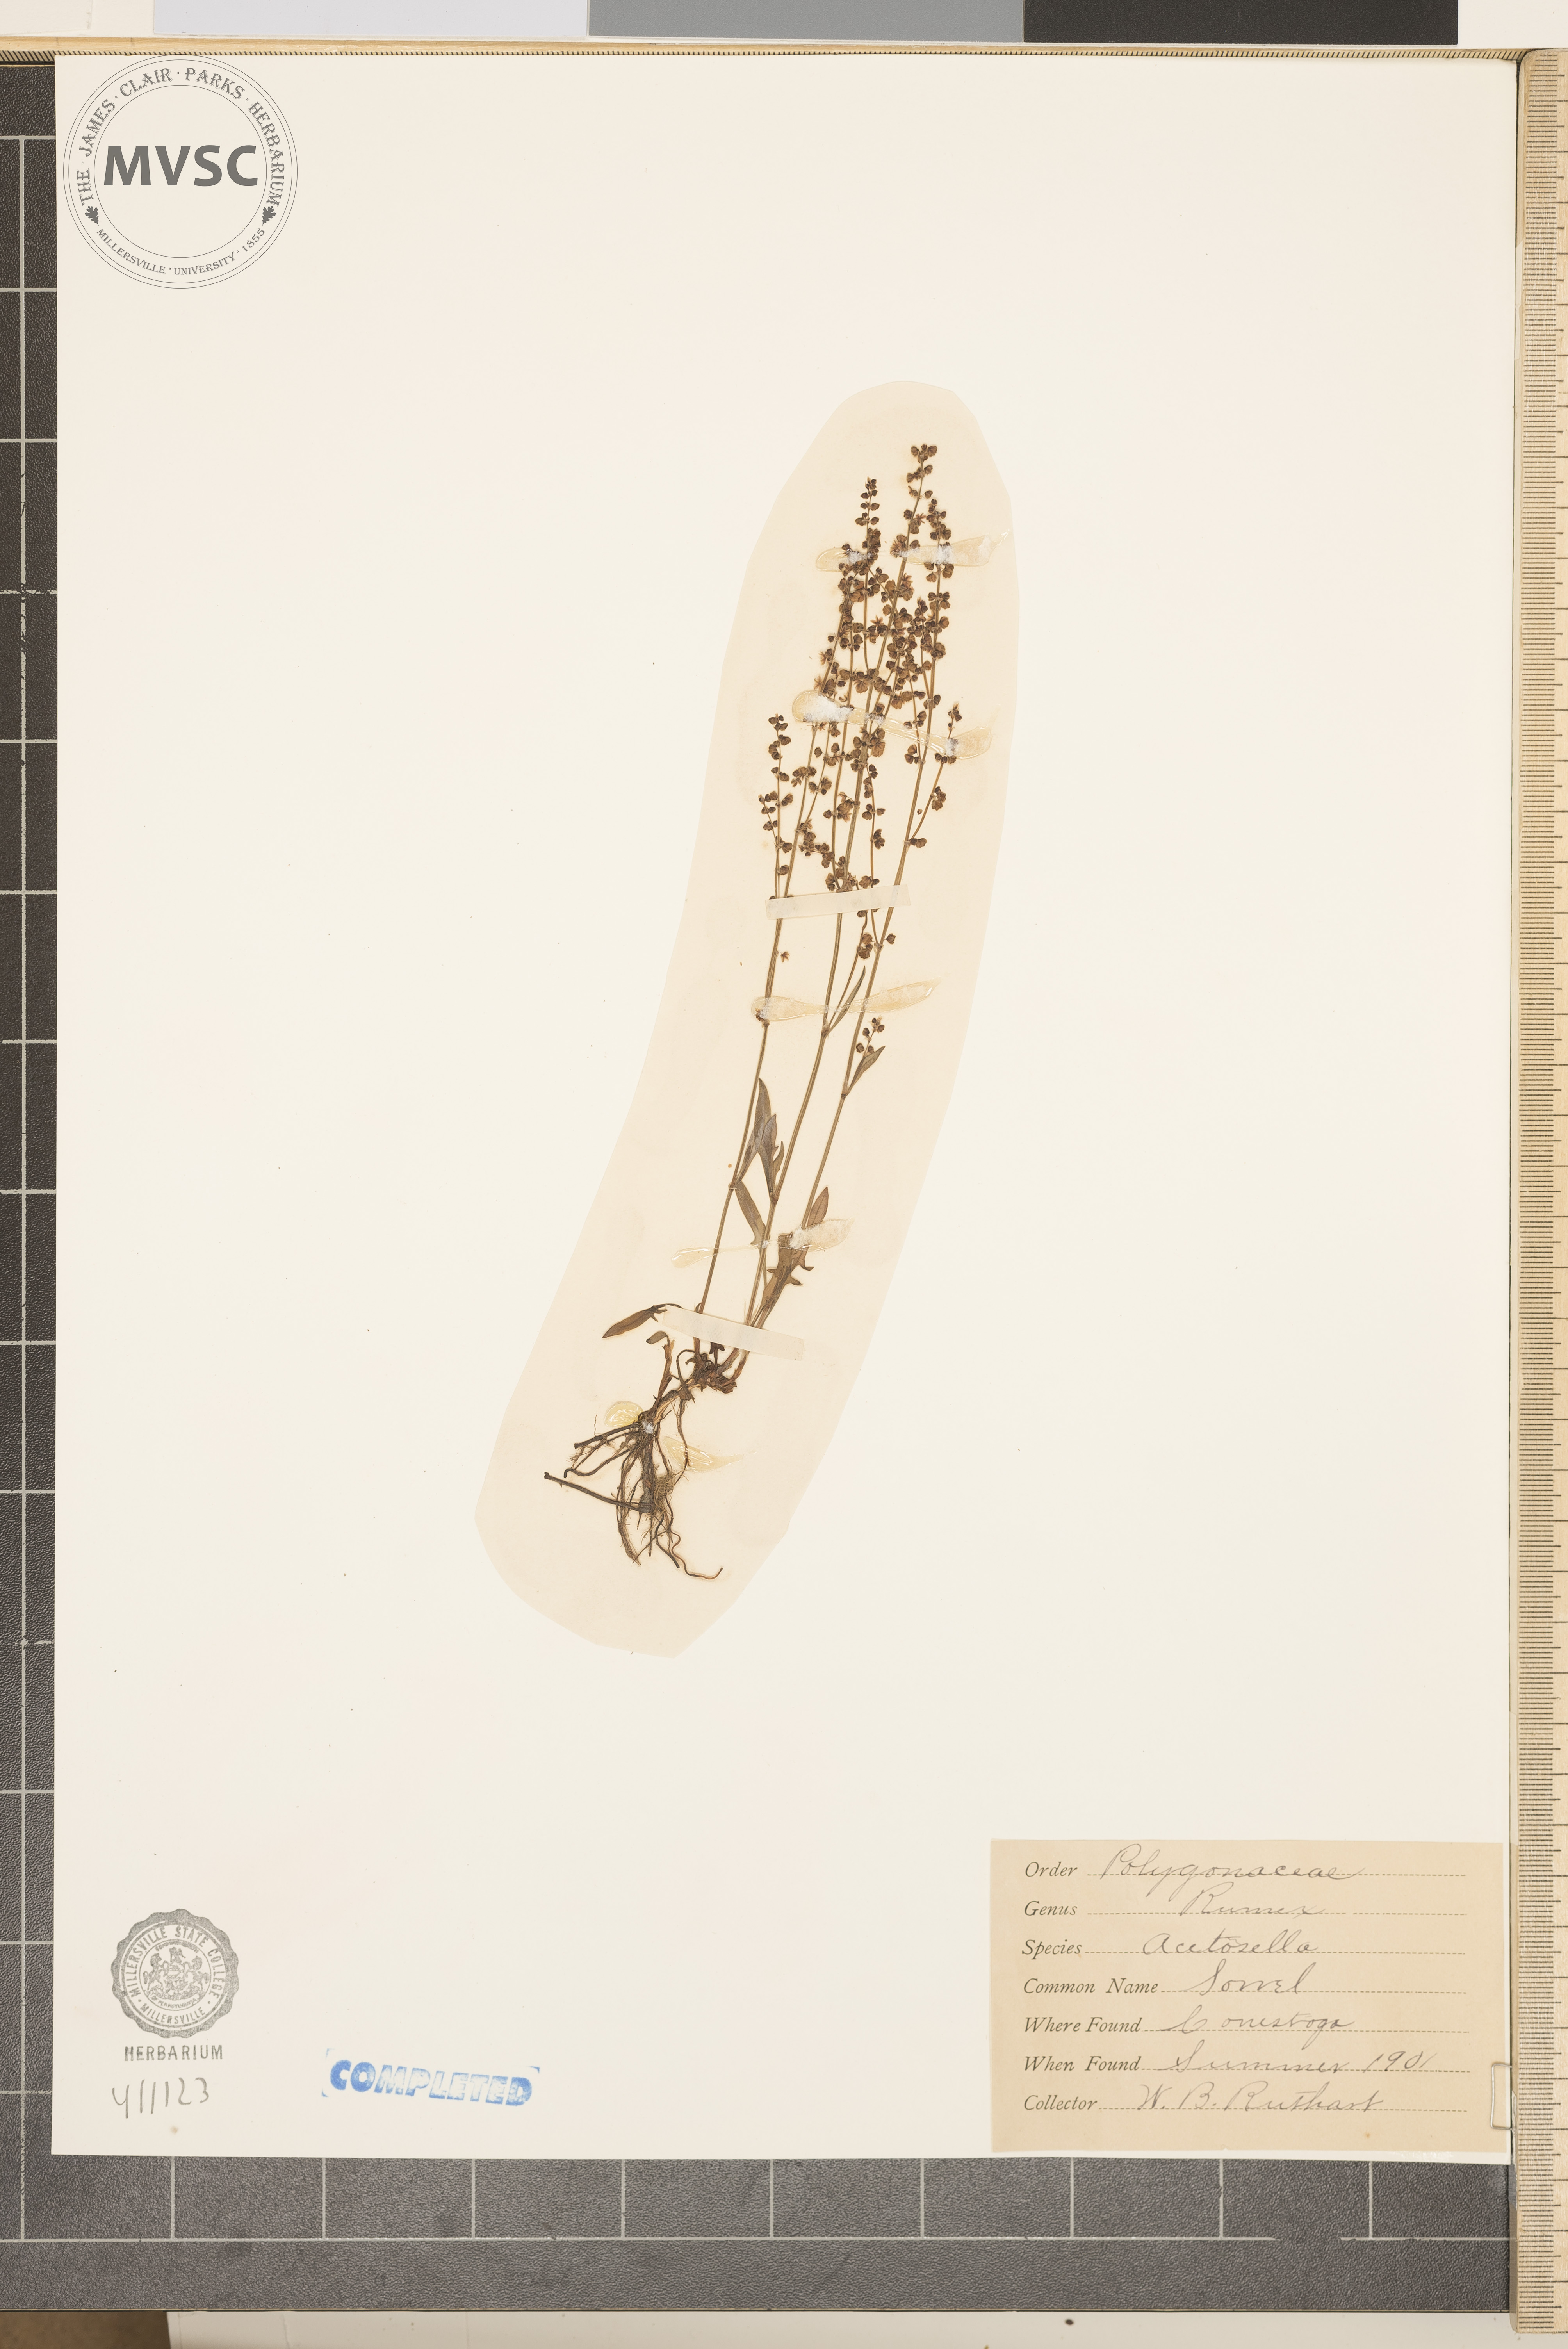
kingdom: Plantae
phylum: Tracheophyta
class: Magnoliopsida
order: Caryophyllales
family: Polygonaceae
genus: Rumex
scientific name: Rumex acetosella
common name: Common sheep sorrel
